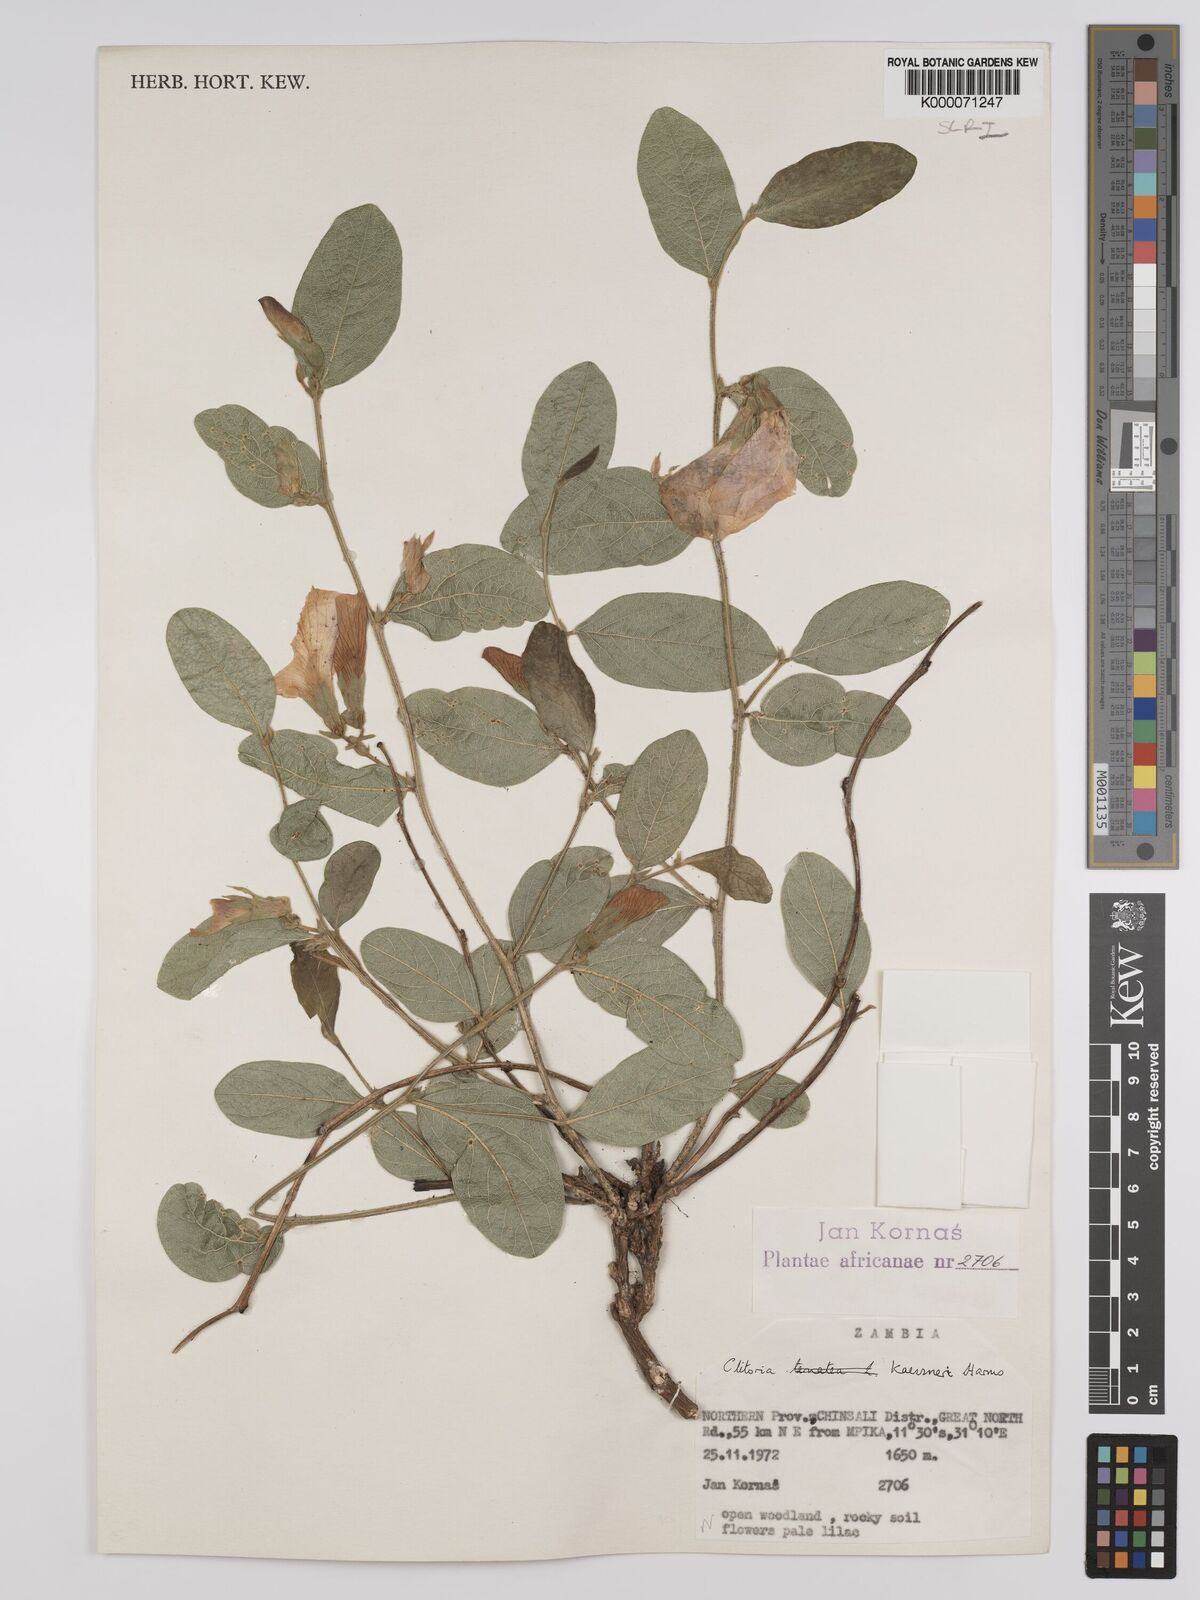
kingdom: Plantae
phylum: Tracheophyta
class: Magnoliopsida
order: Fabales
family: Fabaceae
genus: Clitoria
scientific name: Clitoria kaessneri
